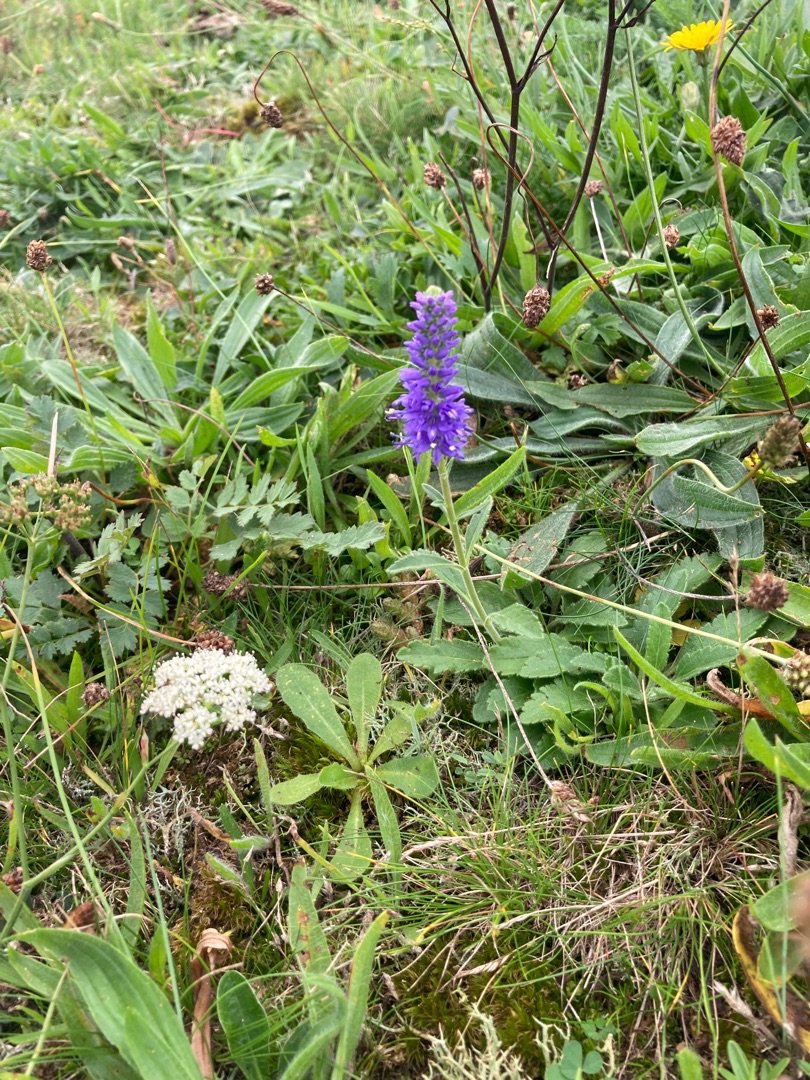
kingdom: Plantae
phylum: Tracheophyta
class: Magnoliopsida
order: Lamiales
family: Plantaginaceae
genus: Veronica
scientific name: Veronica spicata
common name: Aks-ærenpris
